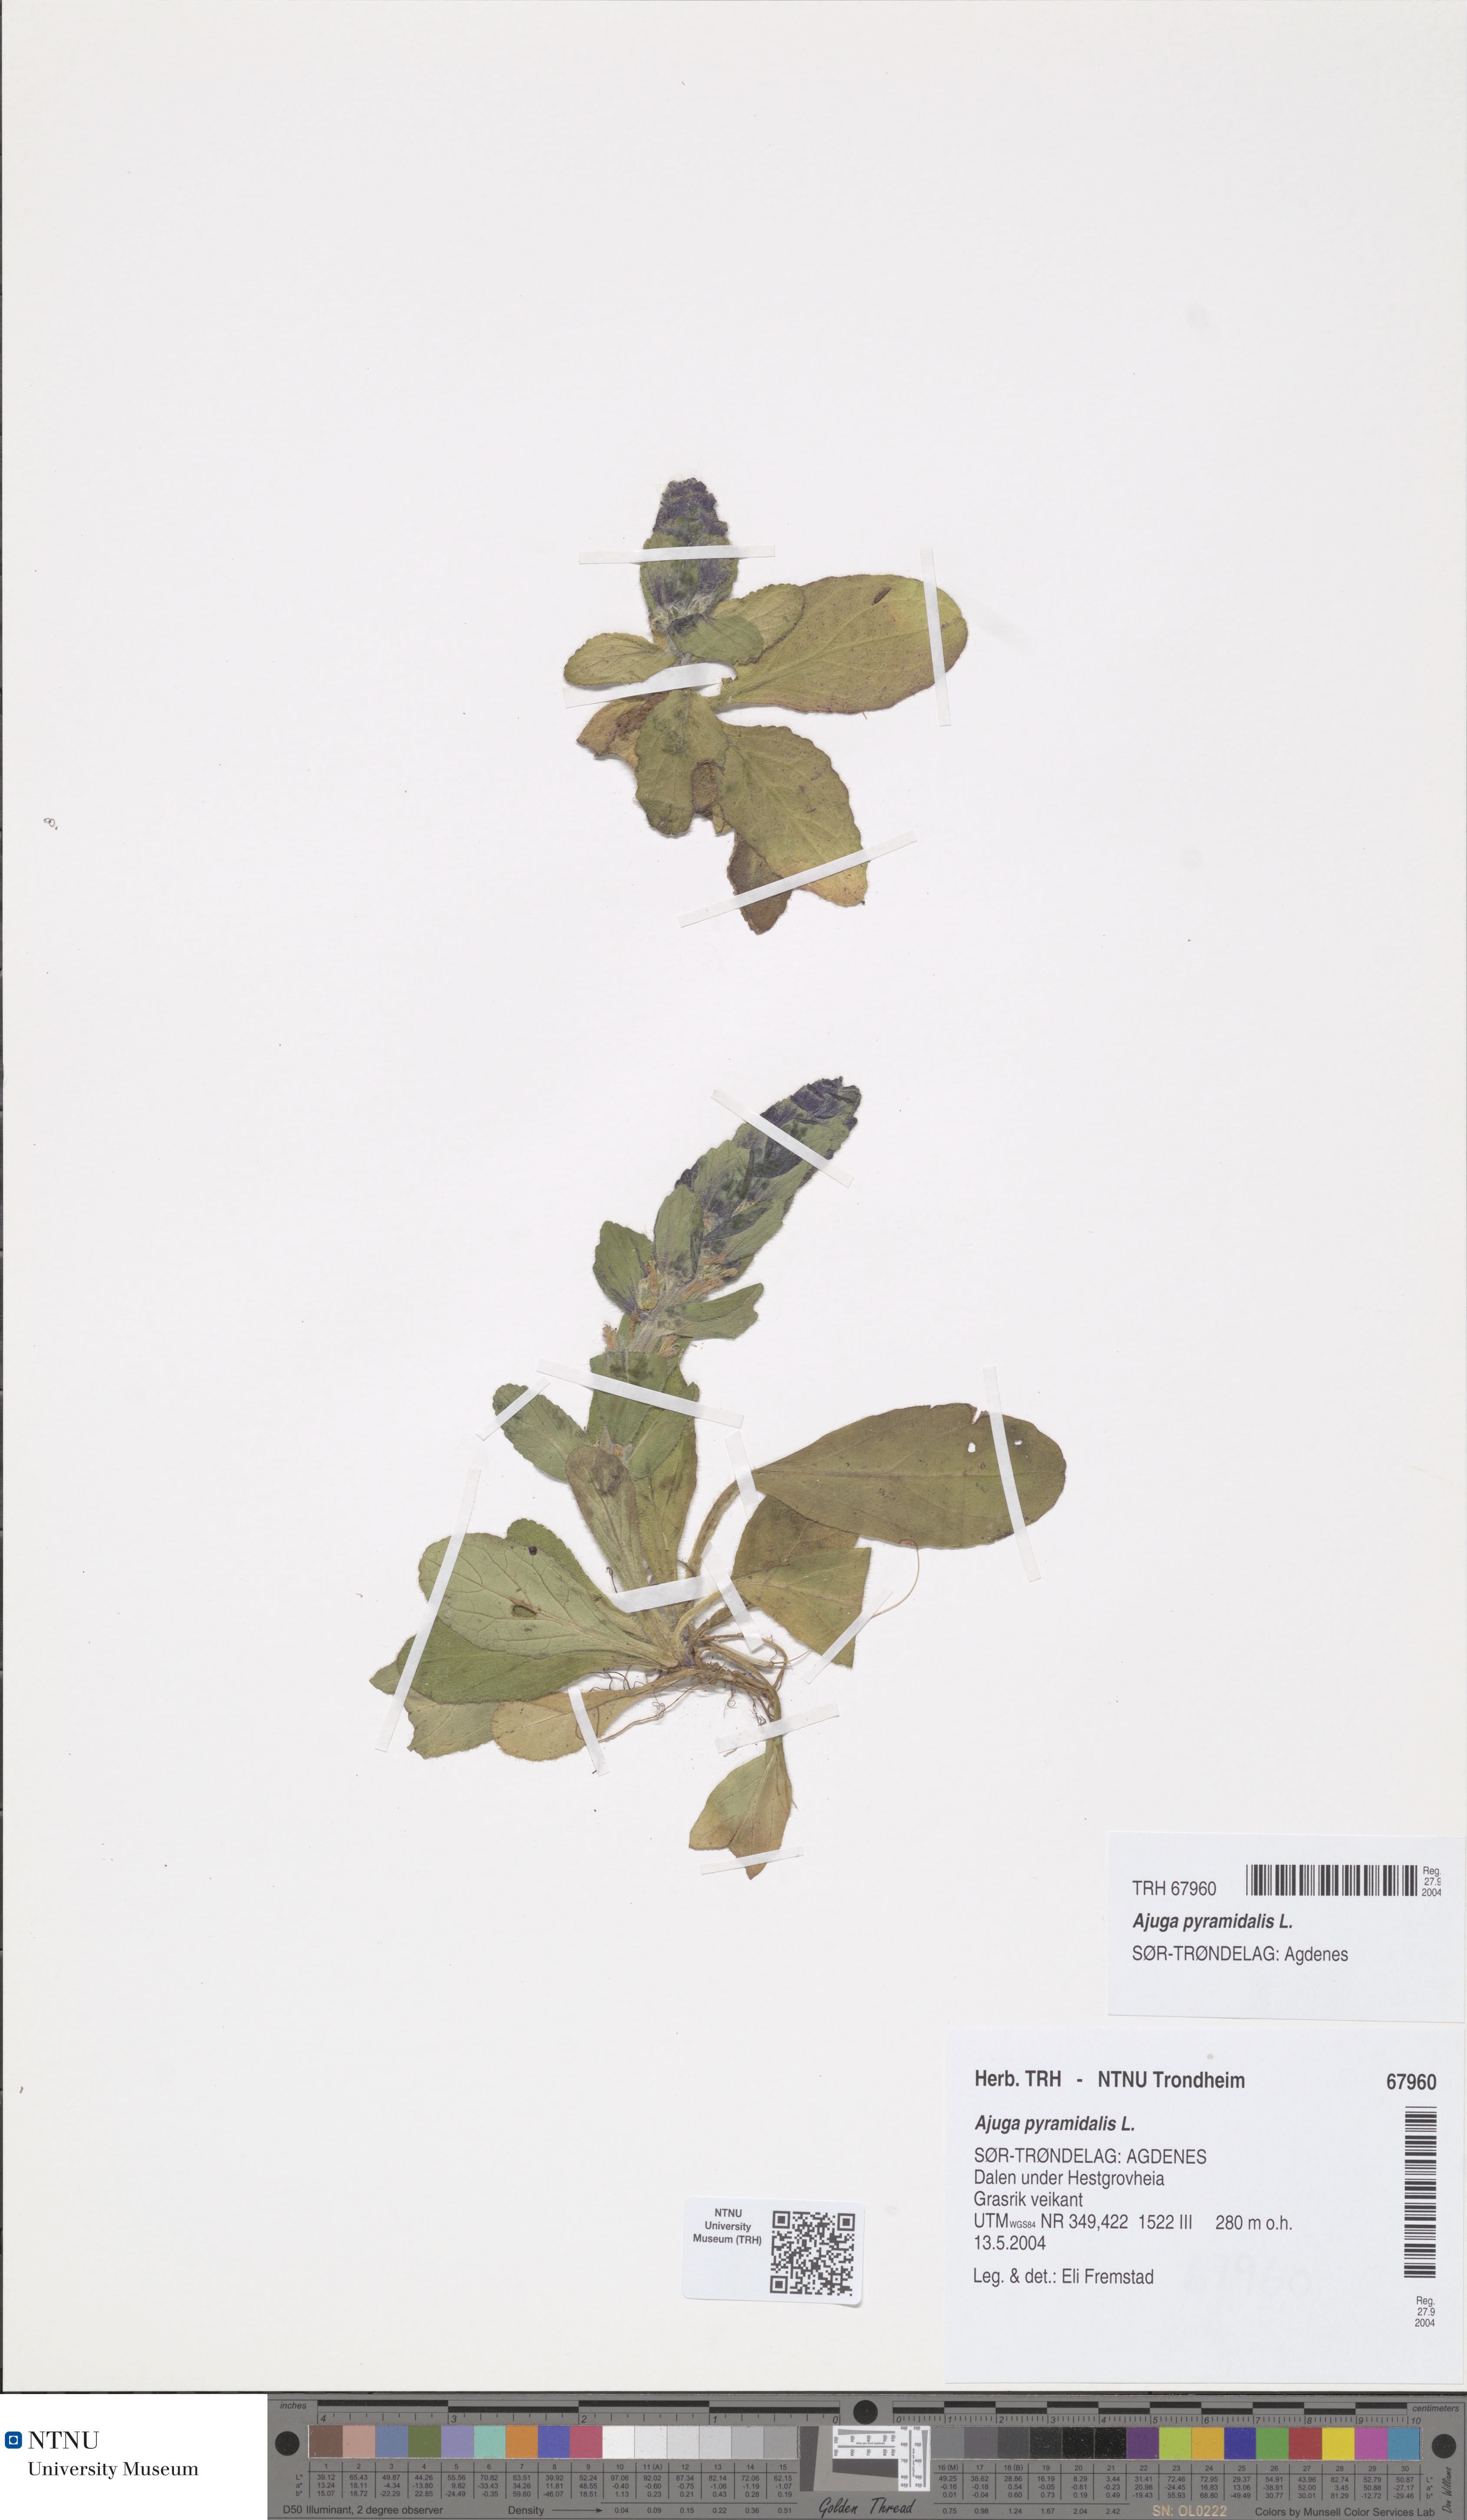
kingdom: Plantae
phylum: Tracheophyta
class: Magnoliopsida
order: Lamiales
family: Lamiaceae
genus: Ajuga
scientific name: Ajuga pyramidalis
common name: Pyramid bugle
